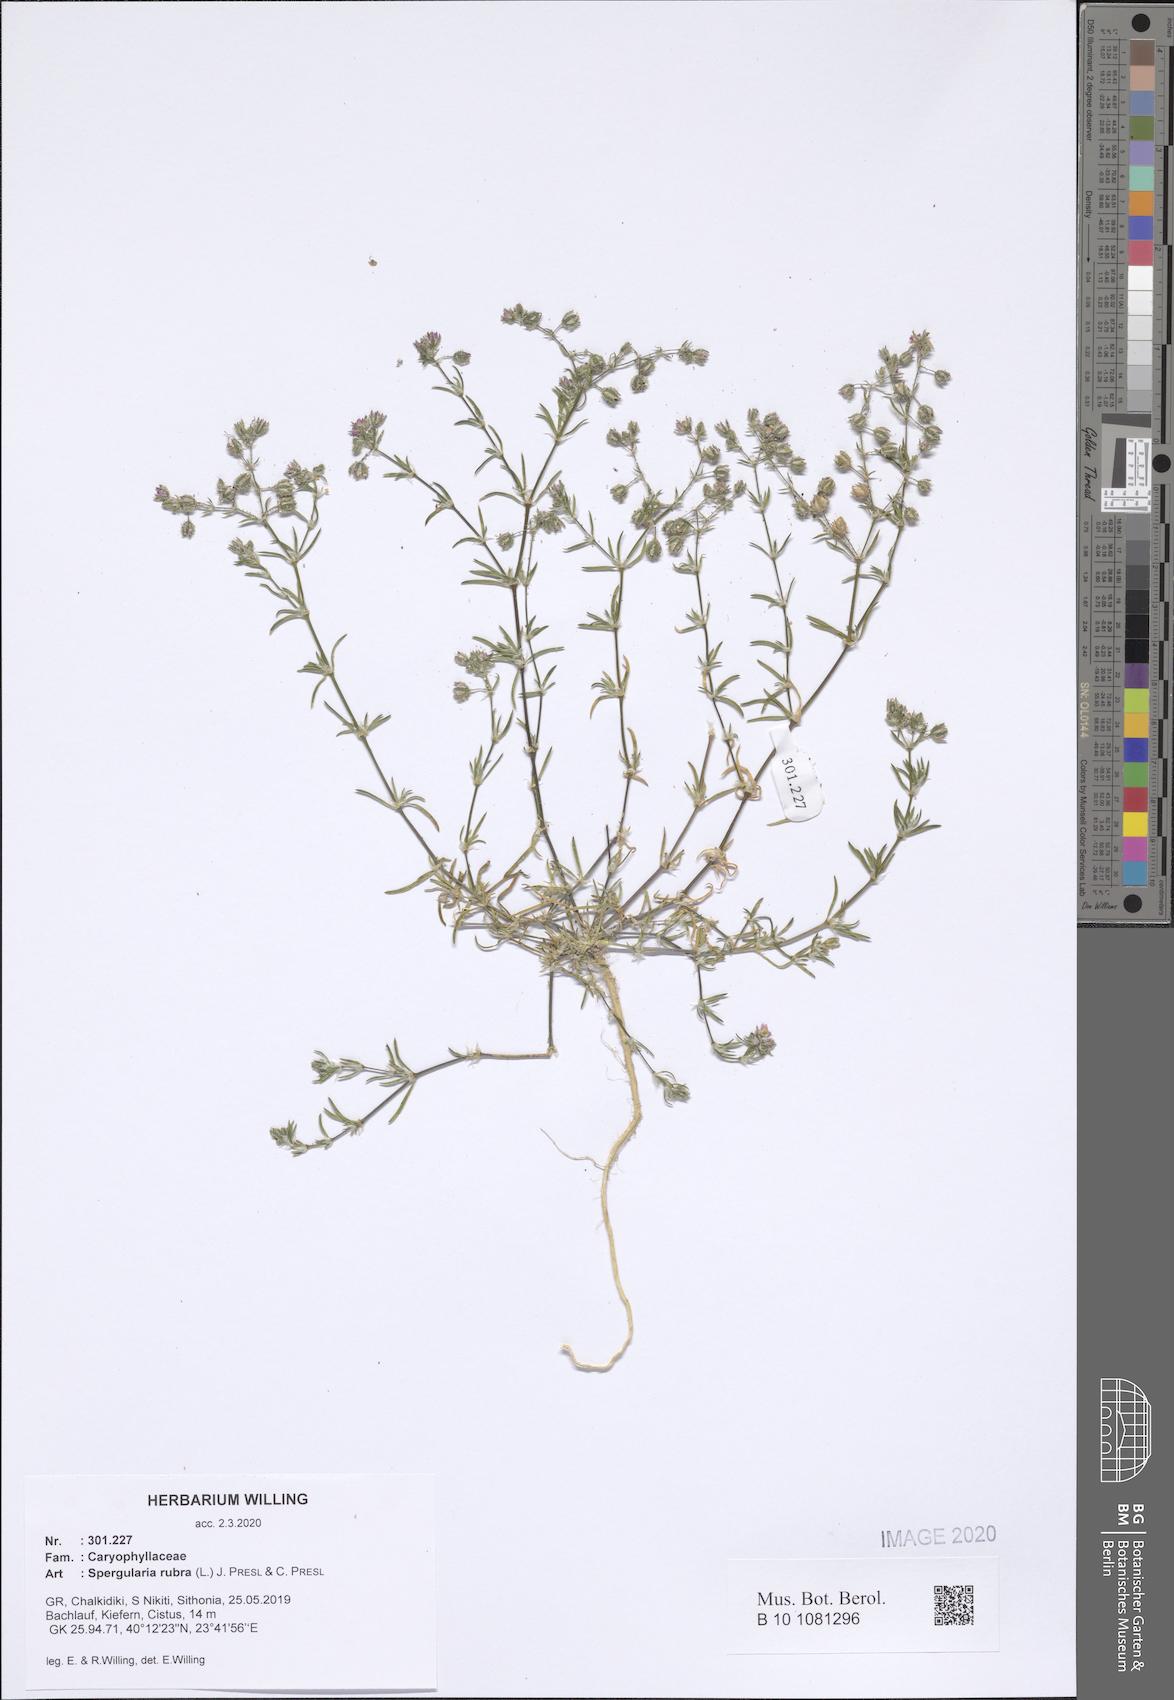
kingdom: Plantae
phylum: Tracheophyta
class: Magnoliopsida
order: Caryophyllales
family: Caryophyllaceae
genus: Spergularia
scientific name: Spergularia rubra
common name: Red sand-spurrey
